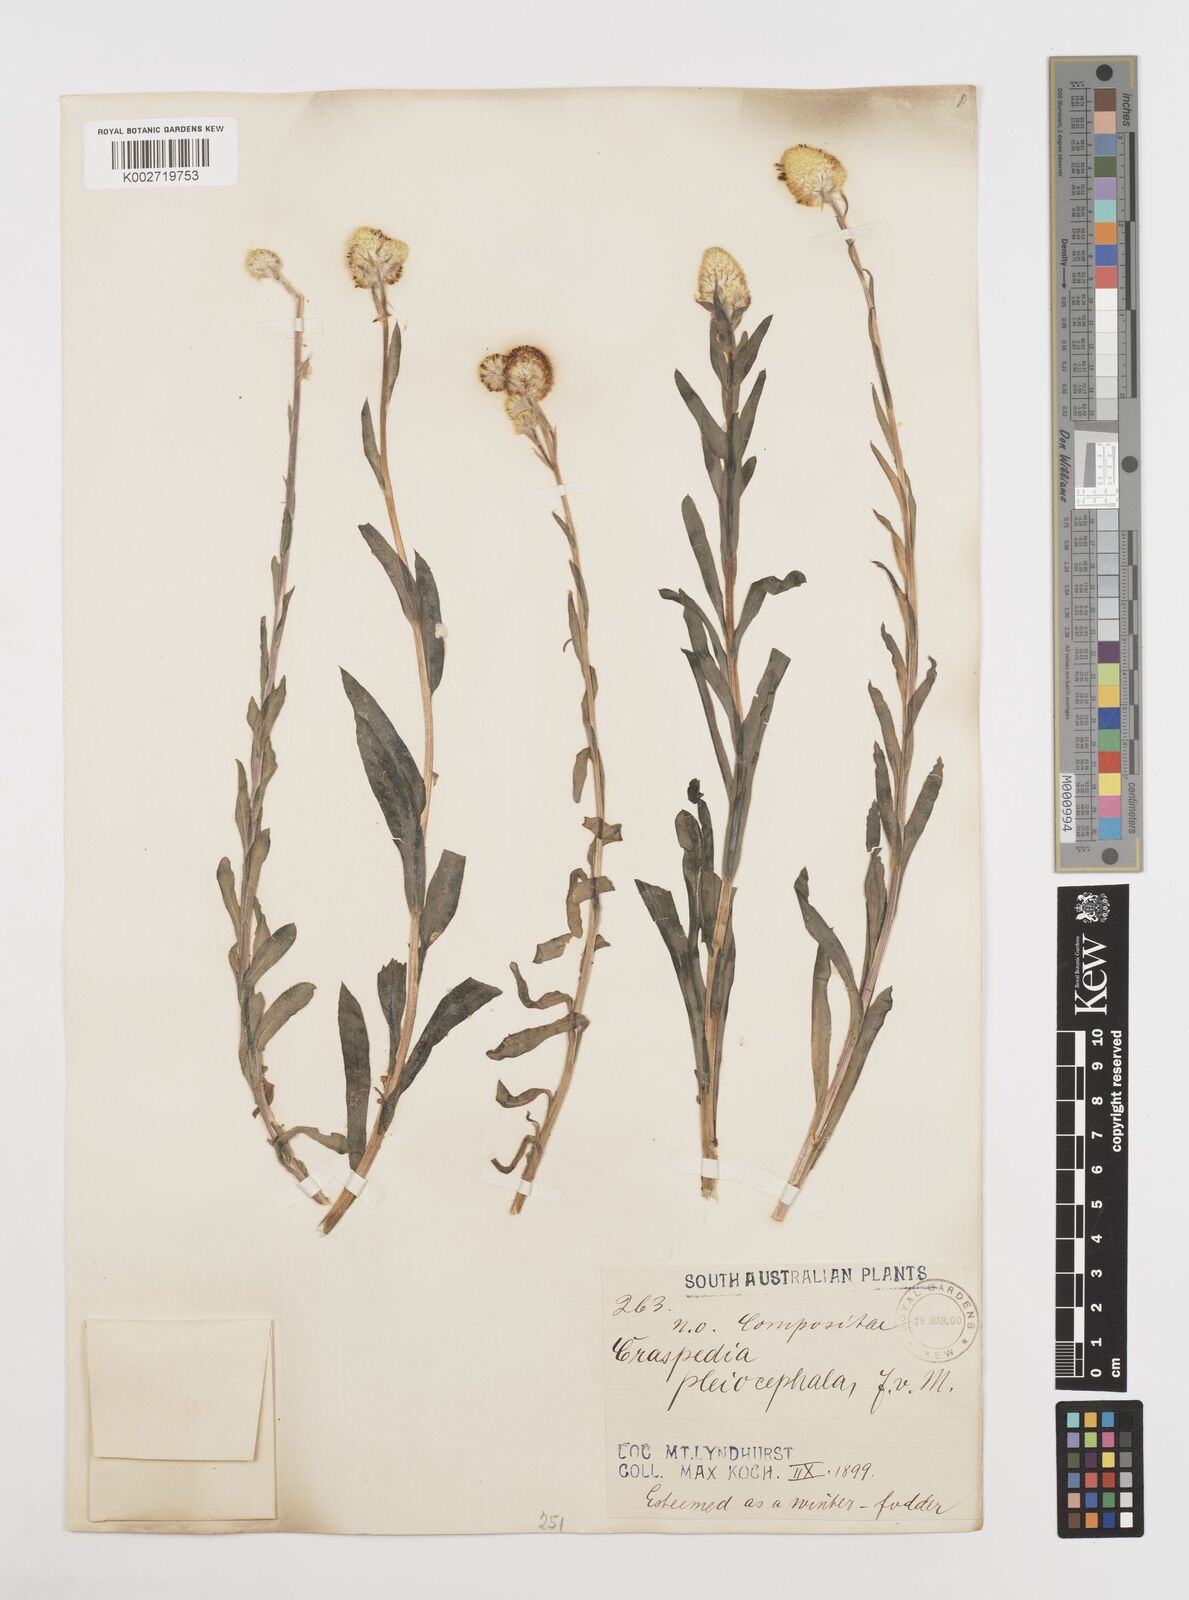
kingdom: Plantae
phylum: Tracheophyta
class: Magnoliopsida
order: Asterales
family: Asteraceae
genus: Pycnosorus
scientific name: Pycnosorus pleiocephalus
